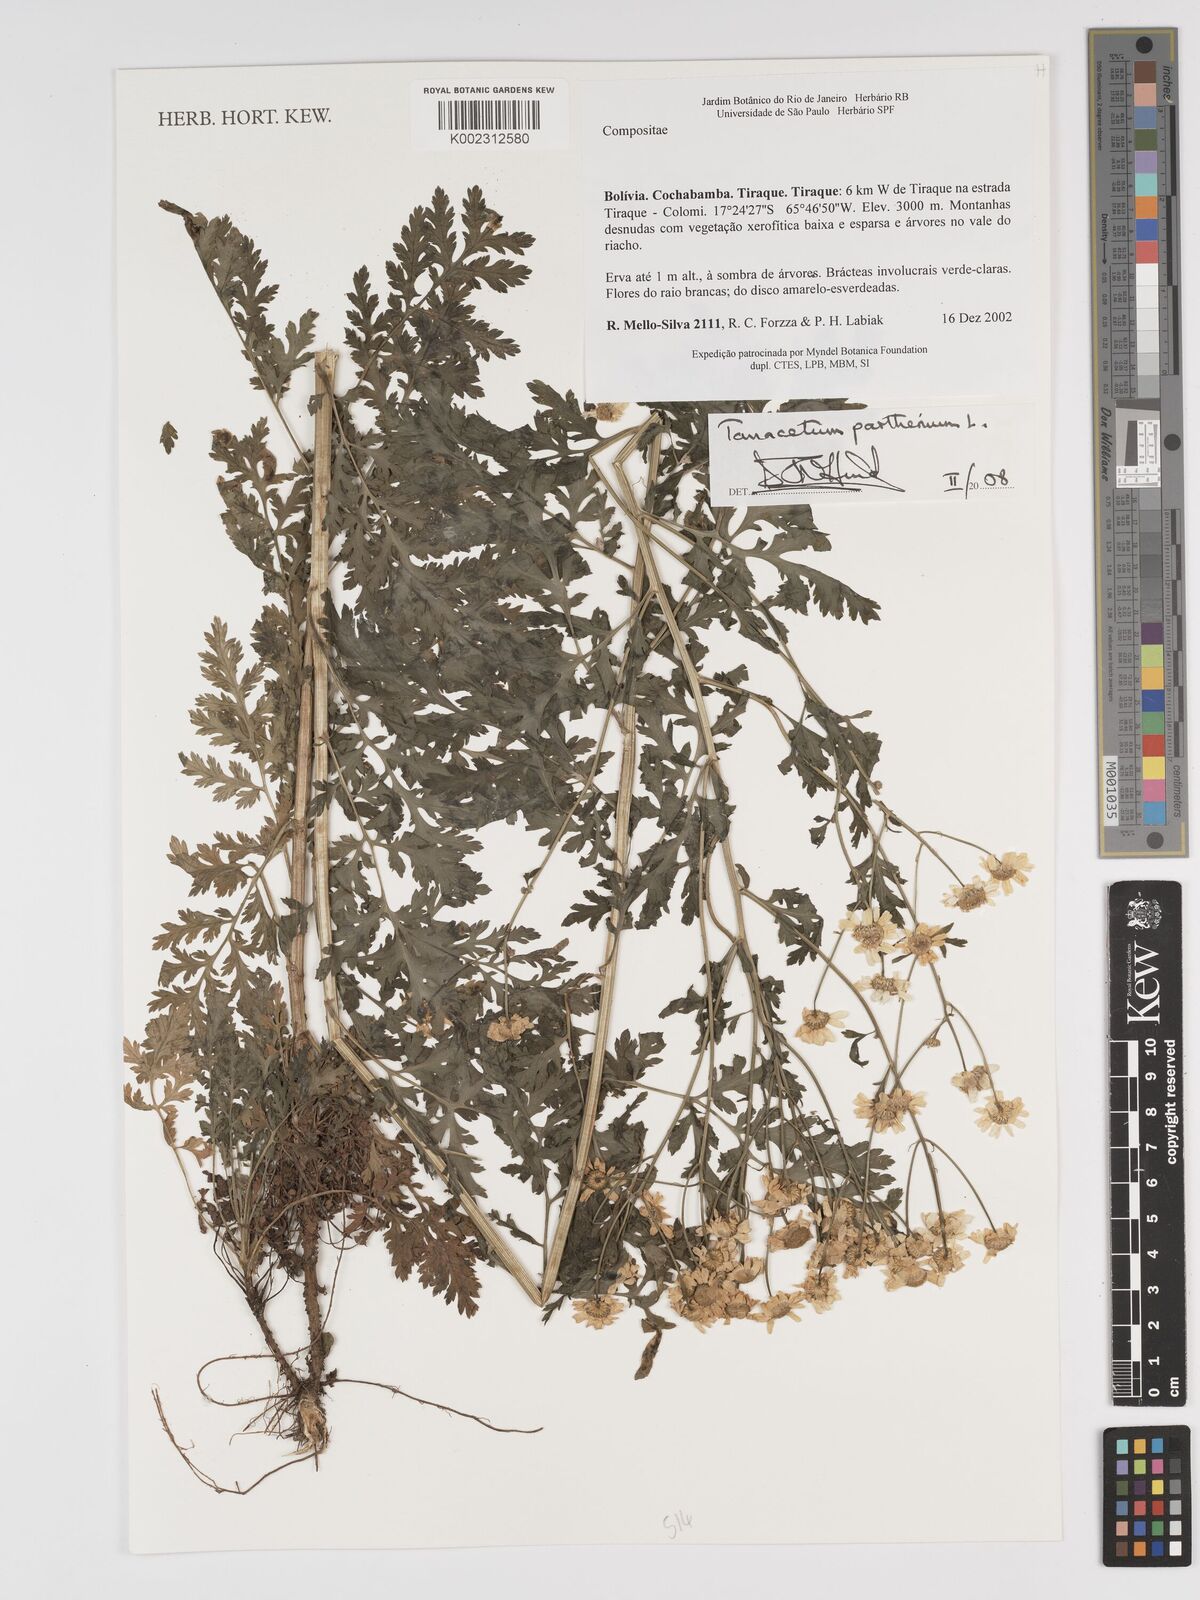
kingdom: Plantae
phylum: Tracheophyta
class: Magnoliopsida
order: Asterales
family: Asteraceae
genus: Tanacetum
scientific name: Tanacetum parthenium
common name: Feverfew
